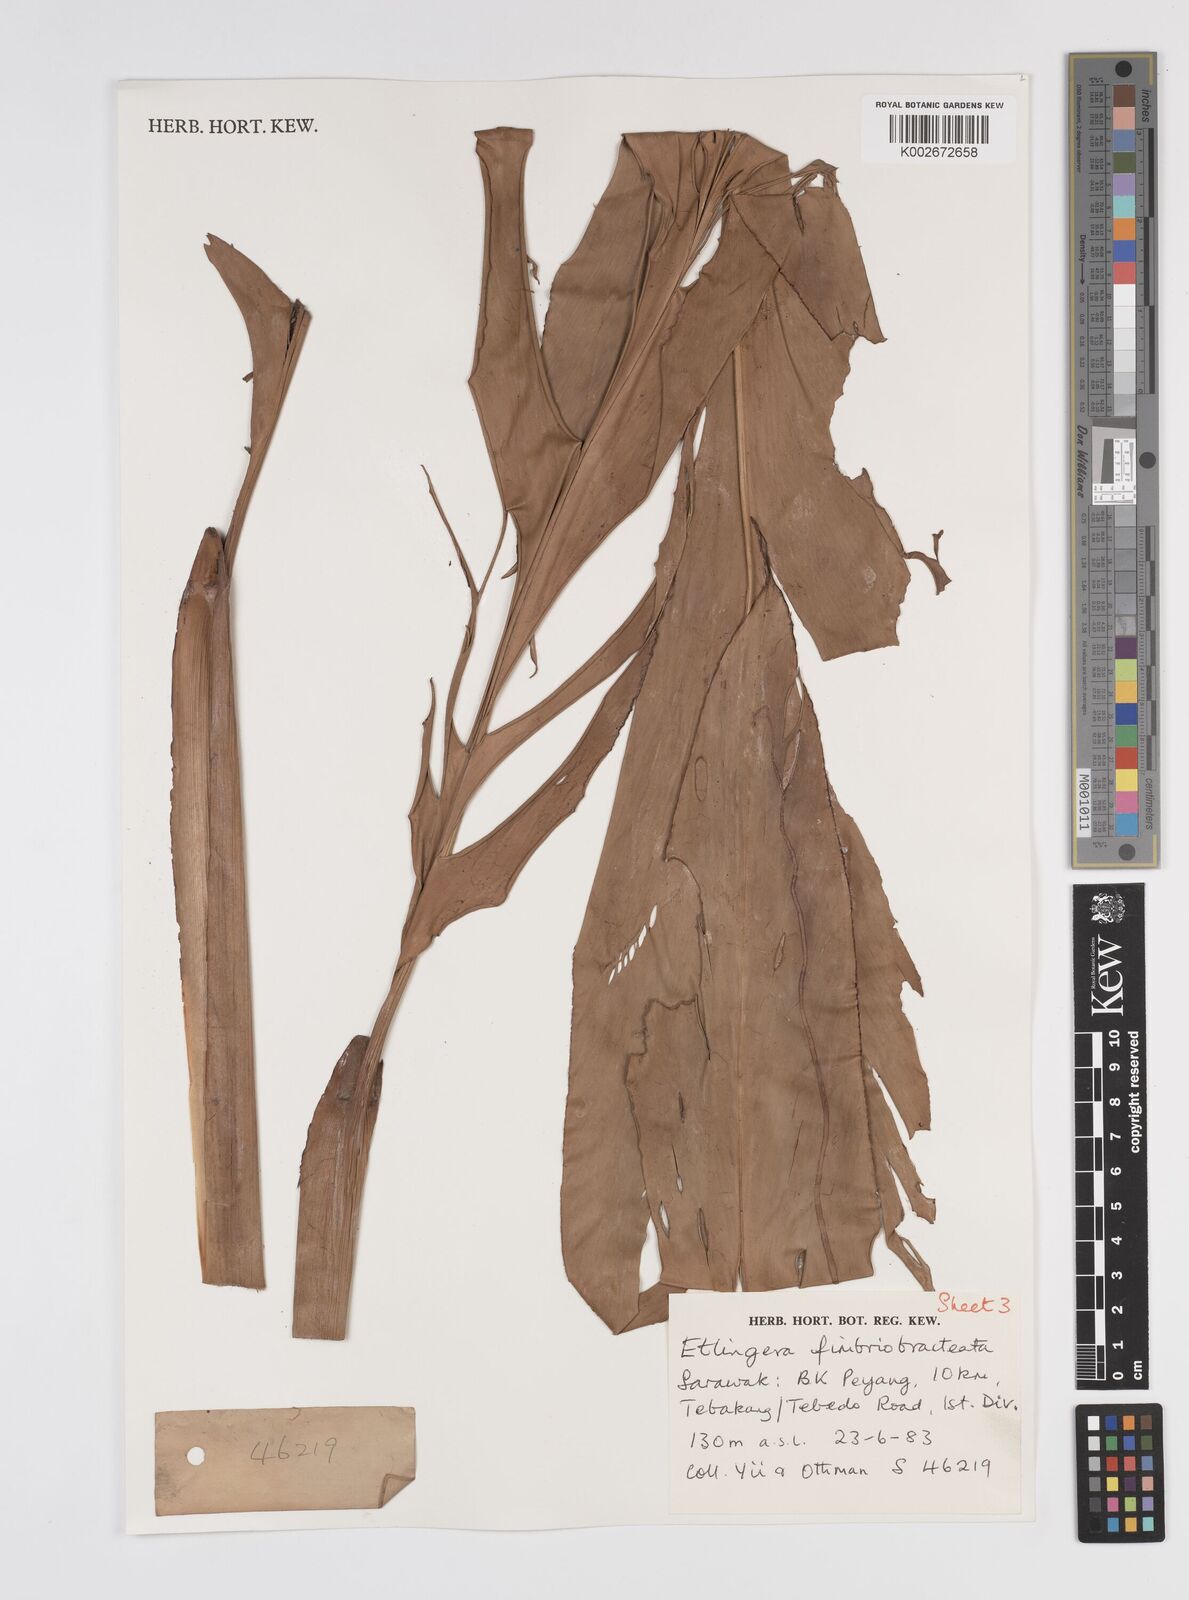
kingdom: Plantae
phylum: Tracheophyta
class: Liliopsida
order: Zingiberales
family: Zingiberaceae
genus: Etlingera
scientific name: Etlingera fimbriobracteata
